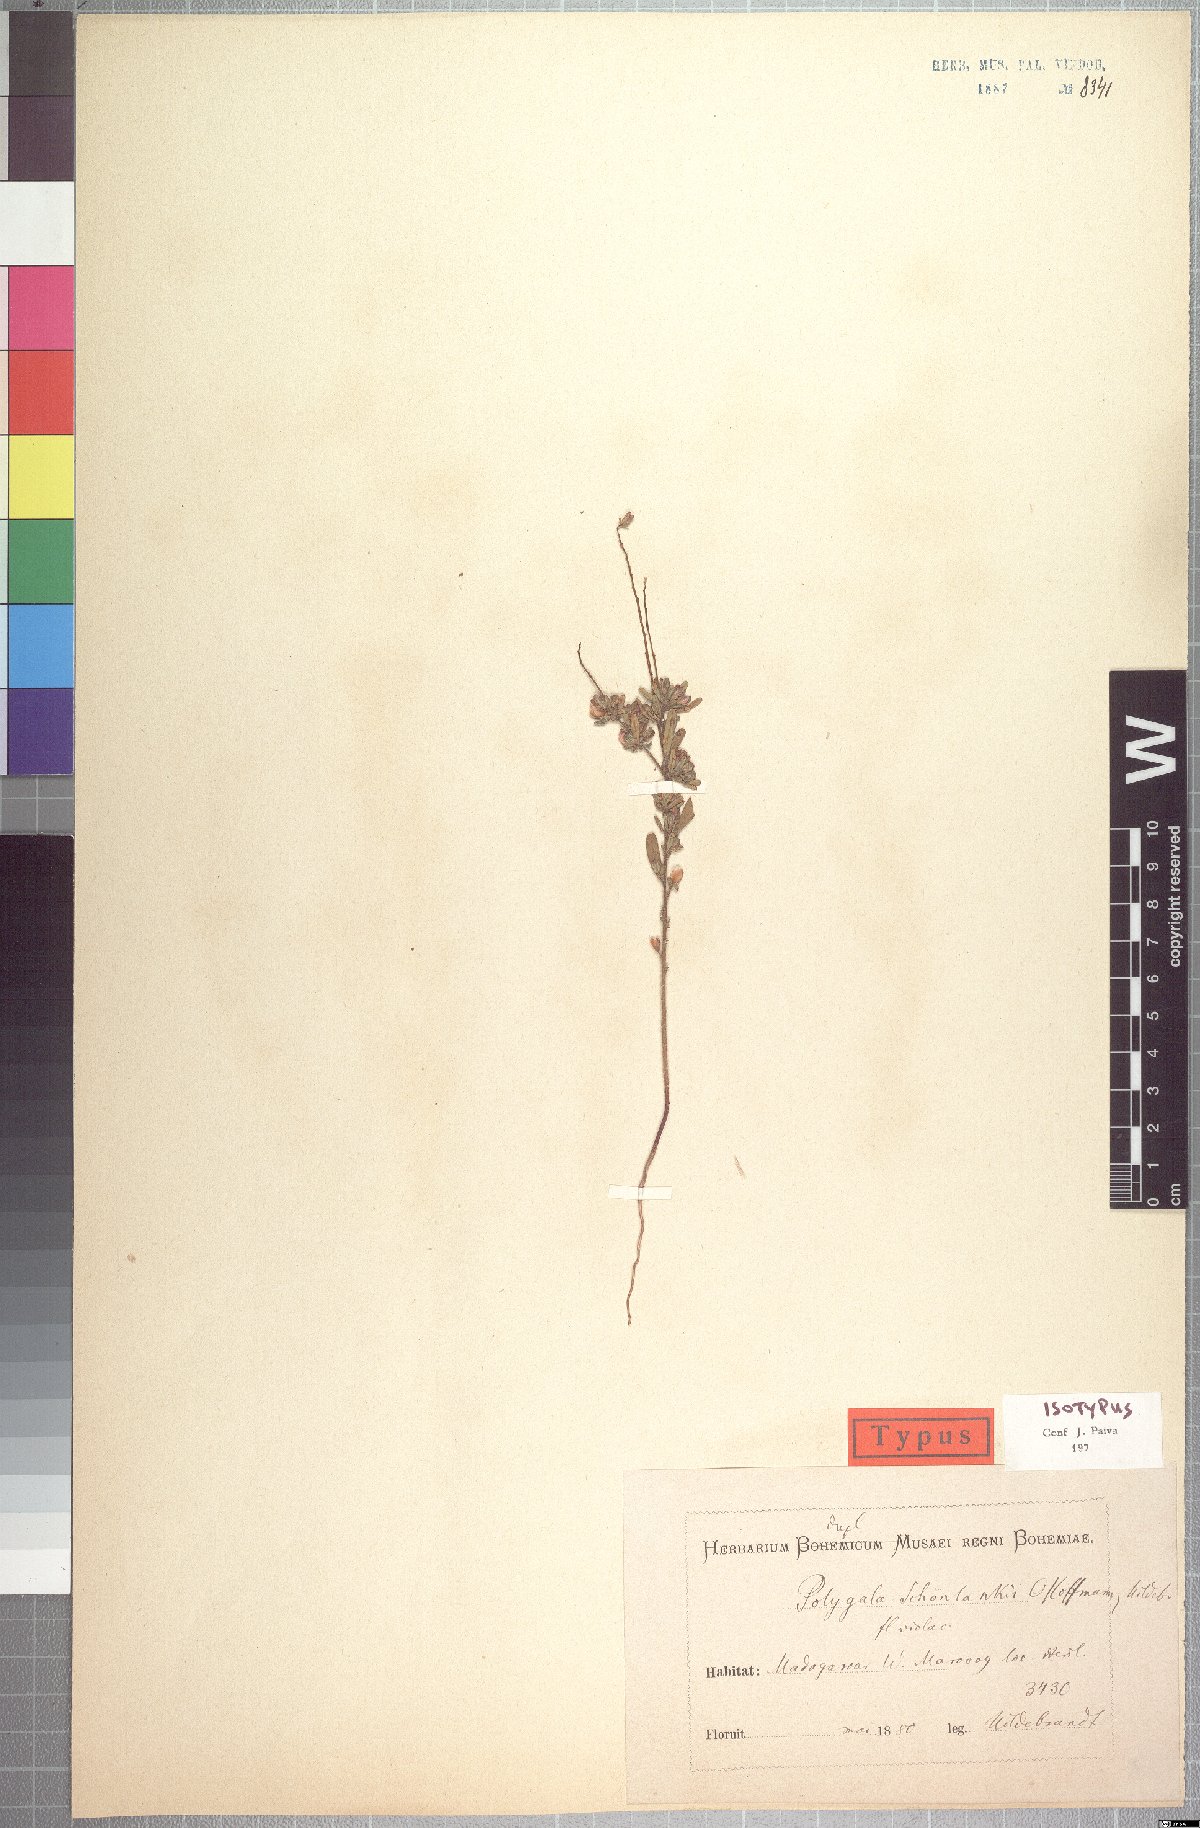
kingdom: Plantae
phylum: Tracheophyta
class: Magnoliopsida
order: Fabales
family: Polygalaceae
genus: Polygala
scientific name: Polygala schoenlankii
